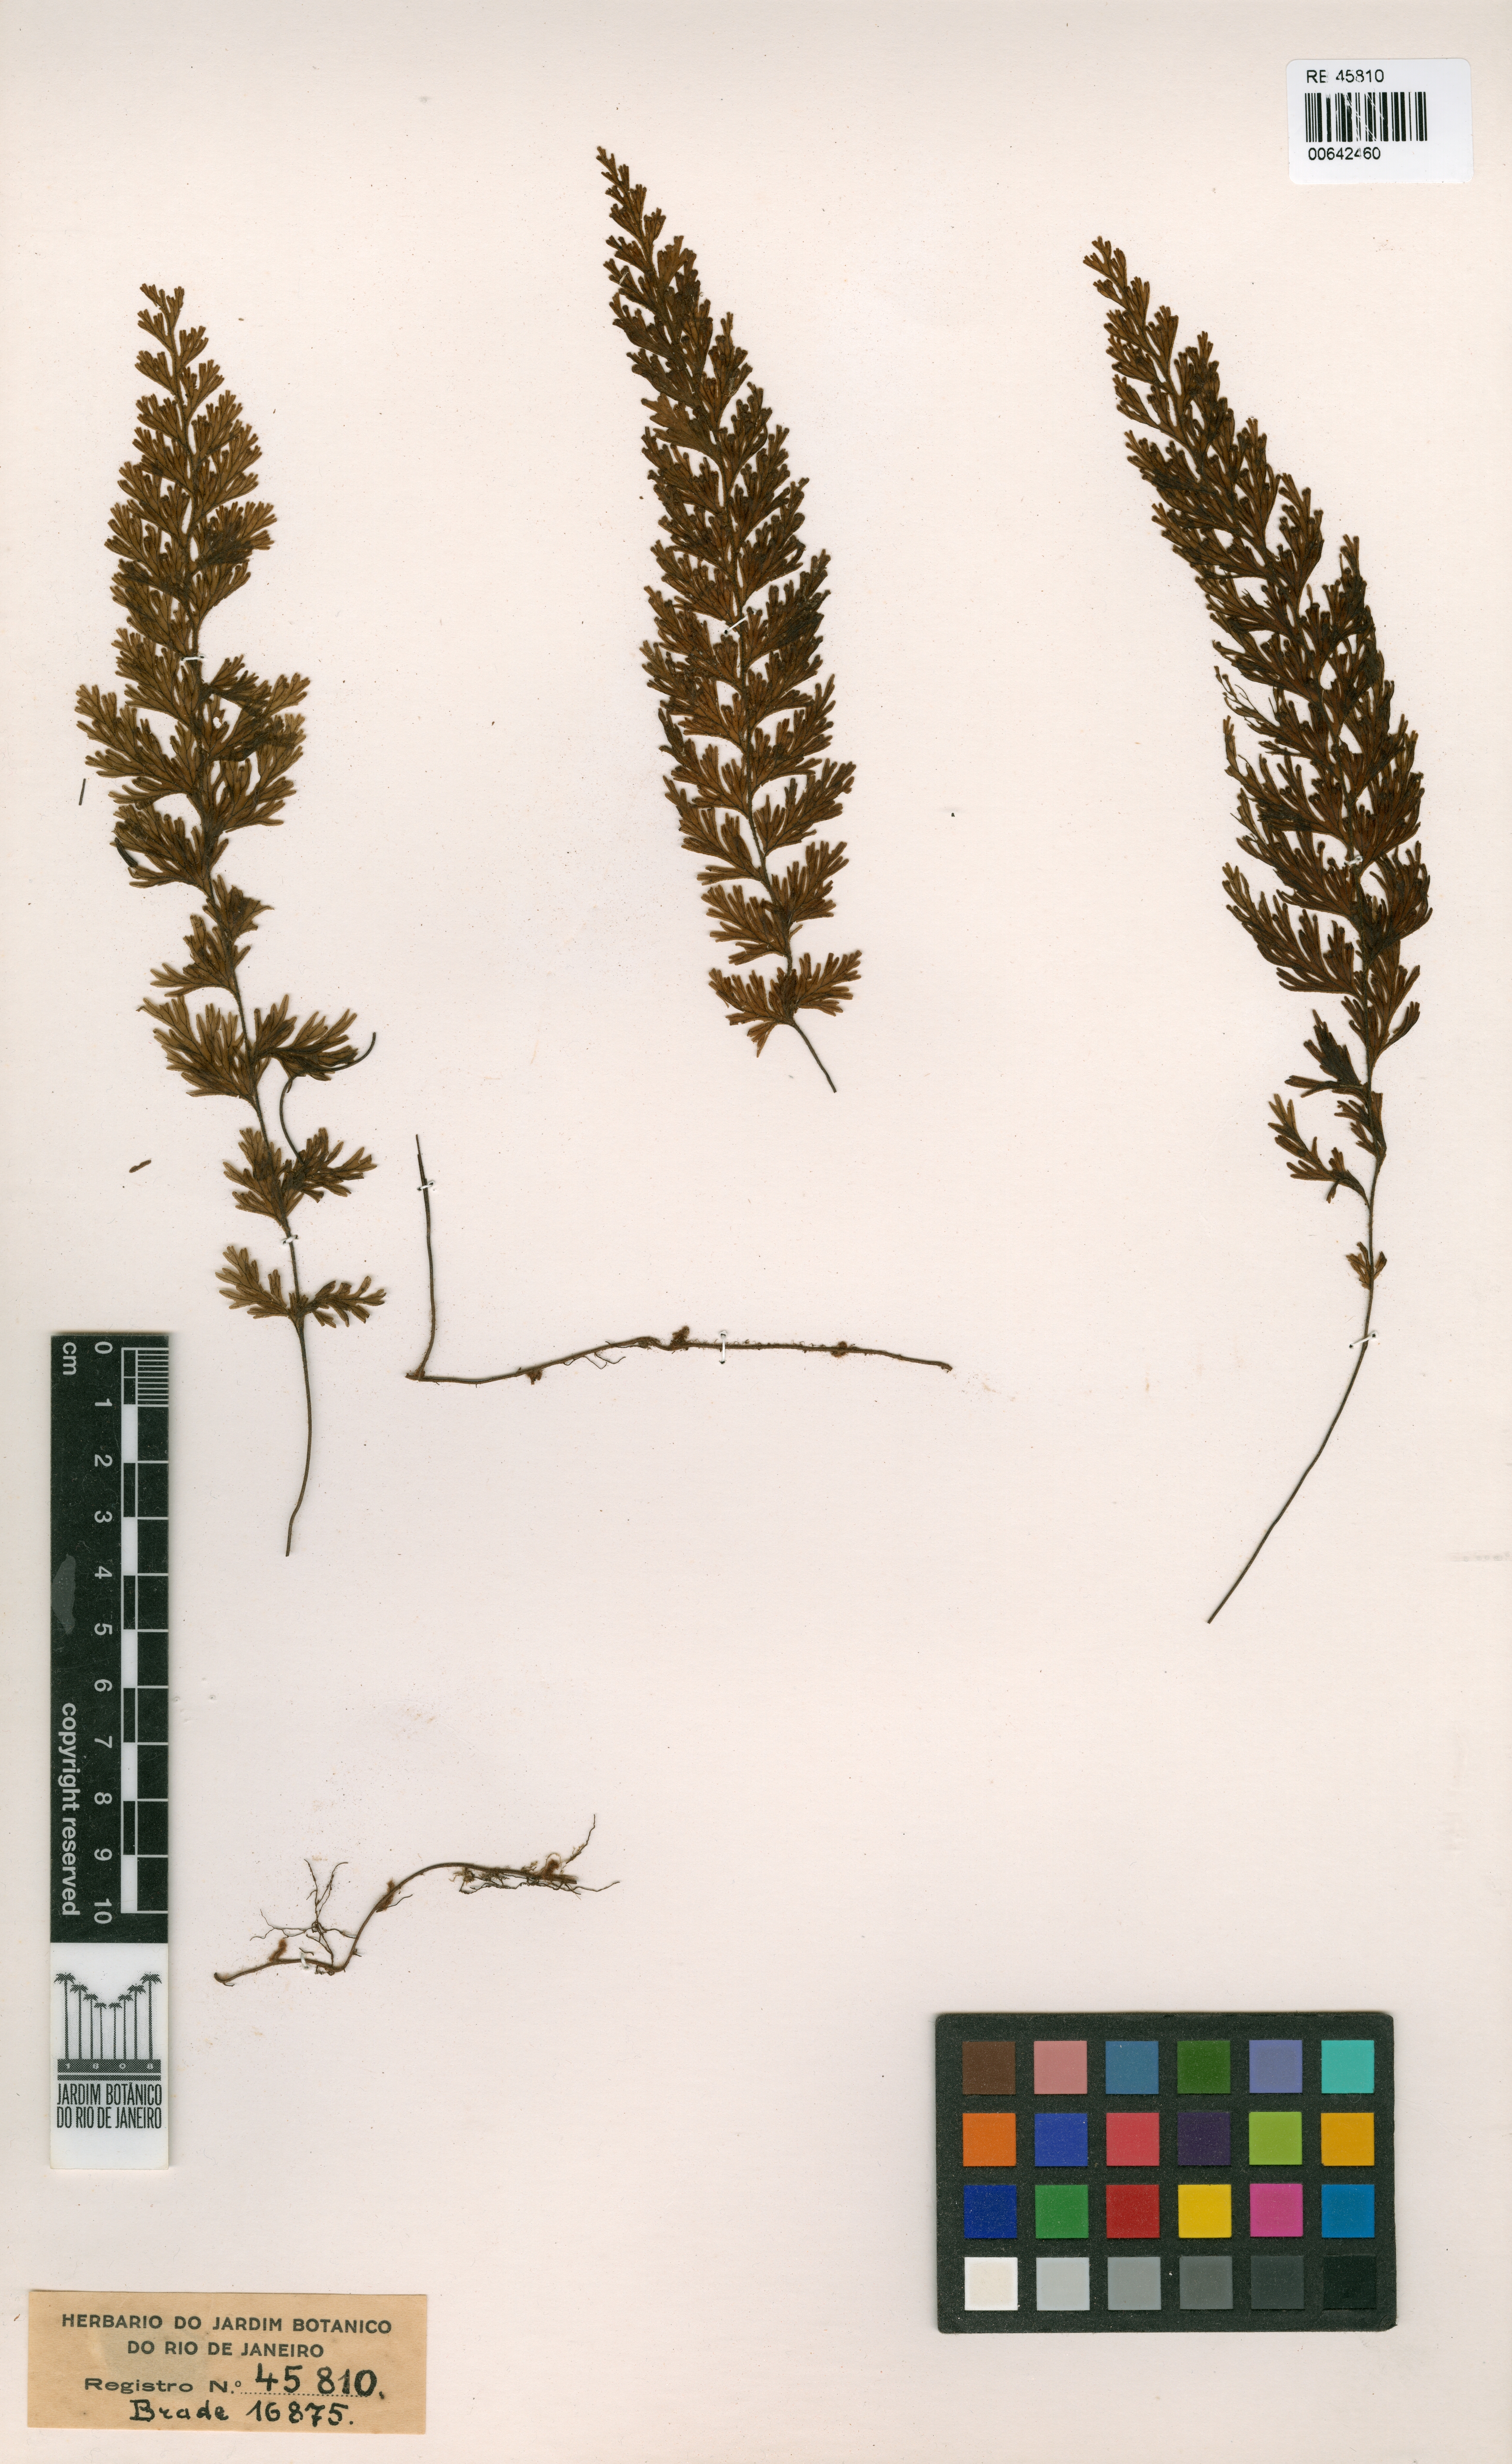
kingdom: Plantae
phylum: Tracheophyta
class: Polypodiopsida
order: Hymenophyllales
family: Hymenophyllaceae
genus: Hymenophyllum
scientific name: Hymenophyllum caparaoense
